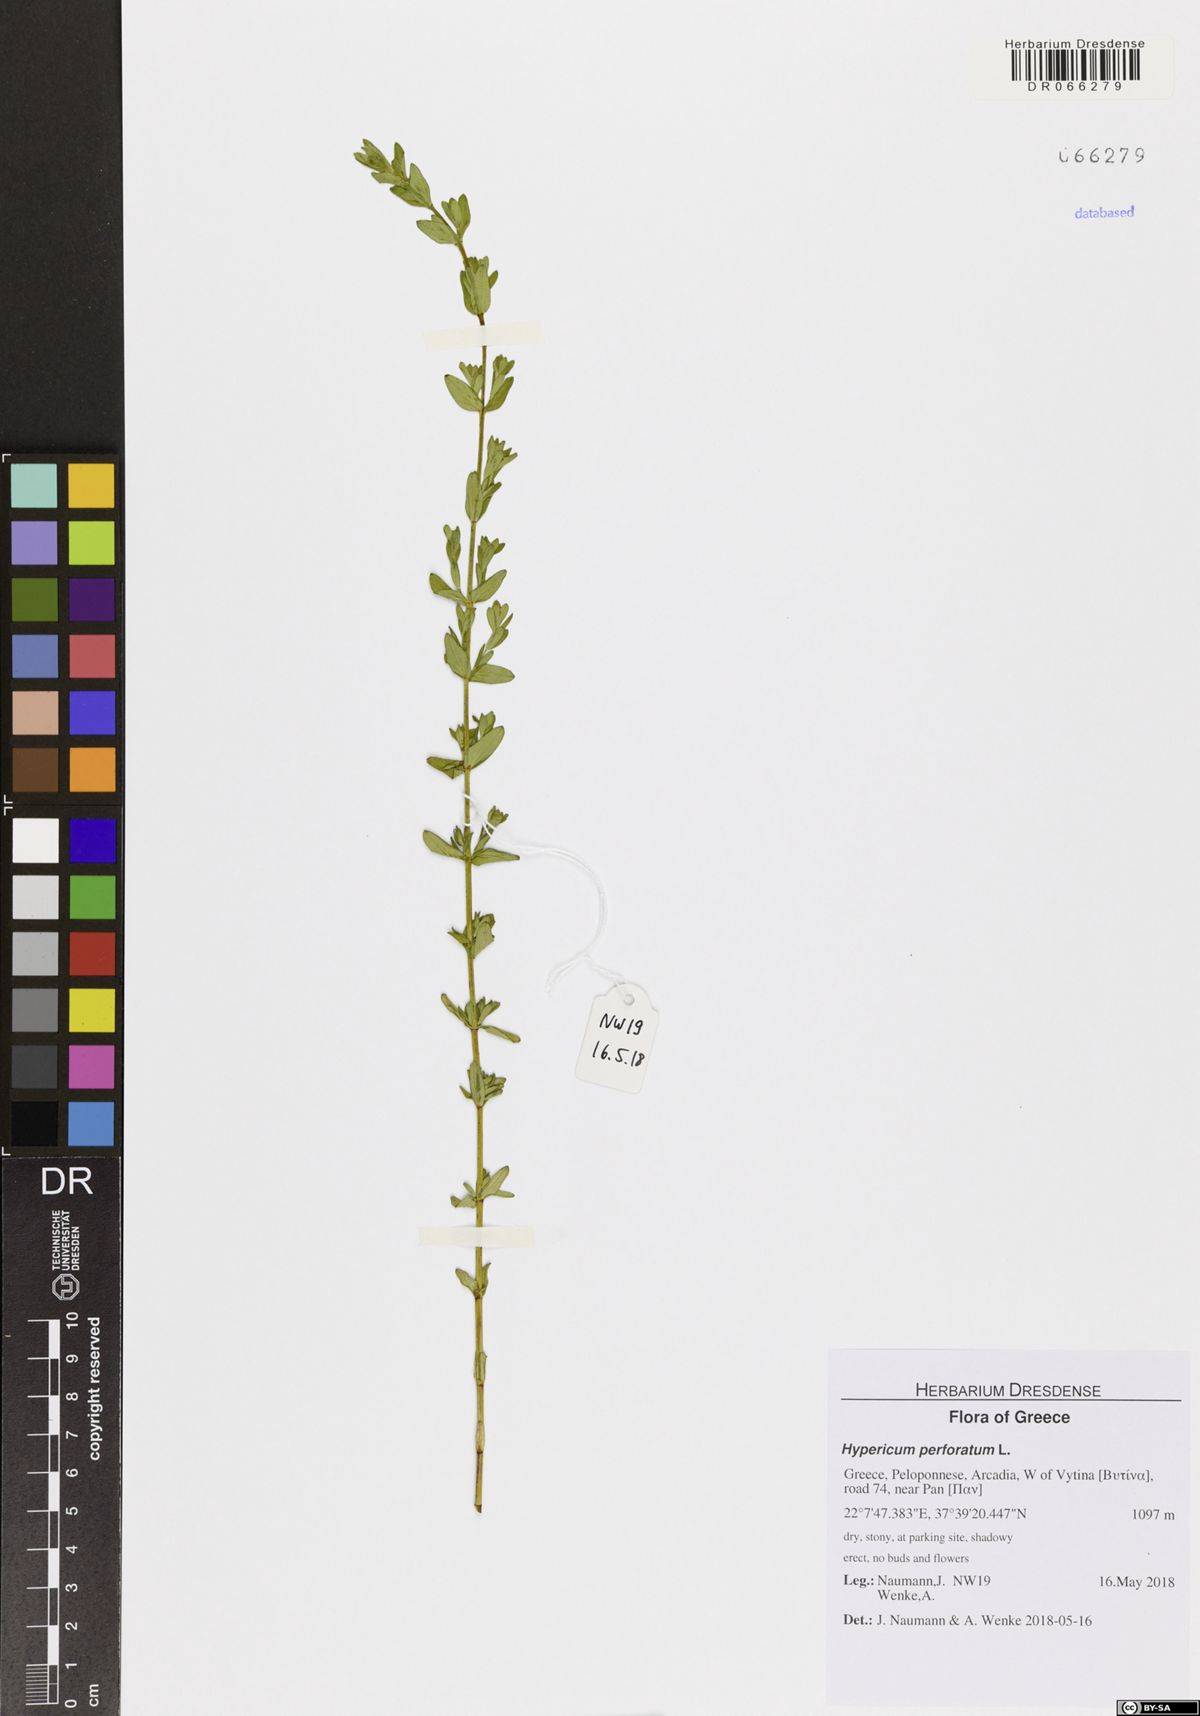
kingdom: Plantae
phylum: Tracheophyta
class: Magnoliopsida
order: Malpighiales
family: Hypericaceae
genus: Hypericum
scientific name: Hypericum perforatum
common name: Common st. johnswort
